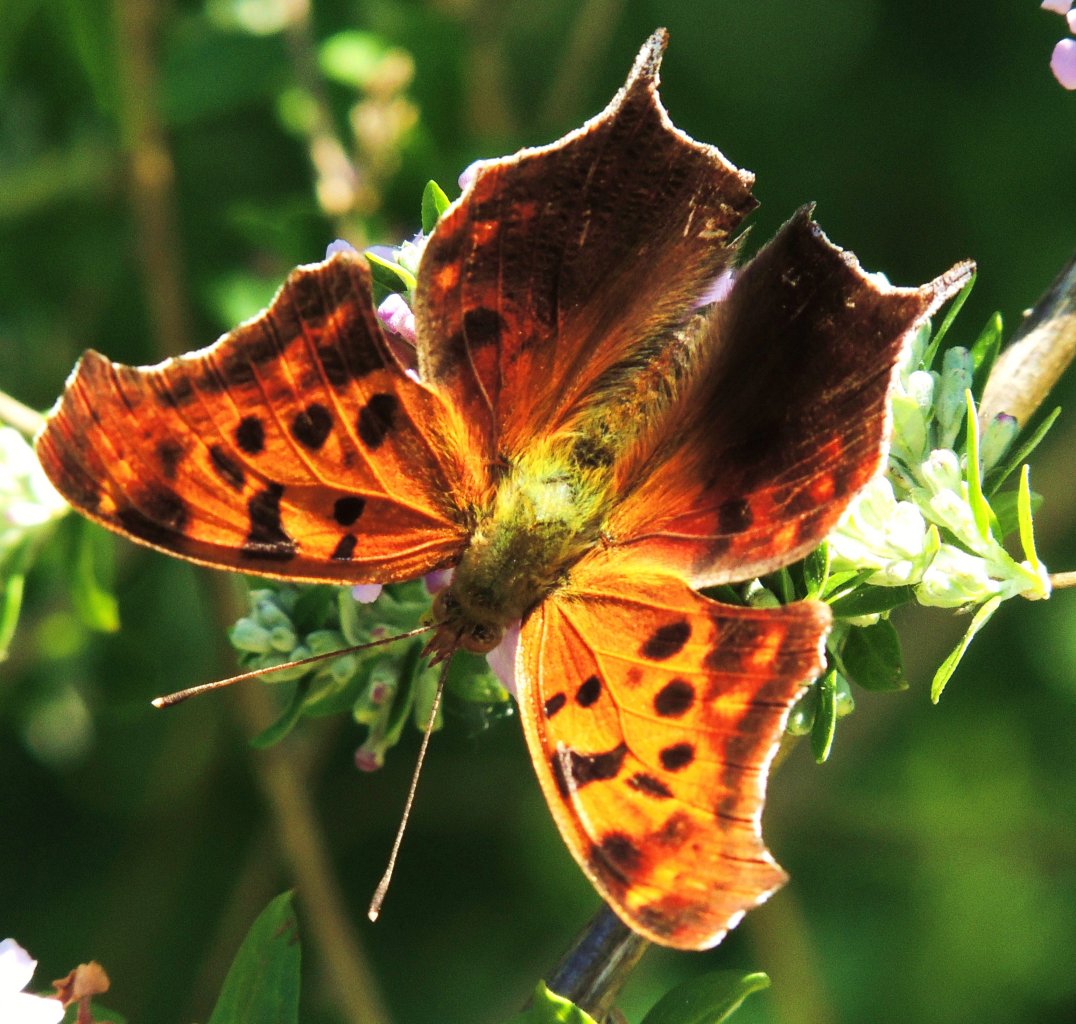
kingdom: Animalia
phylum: Arthropoda
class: Insecta
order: Lepidoptera
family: Nymphalidae
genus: Polygonia
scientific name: Polygonia interrogationis
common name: Question Mark
